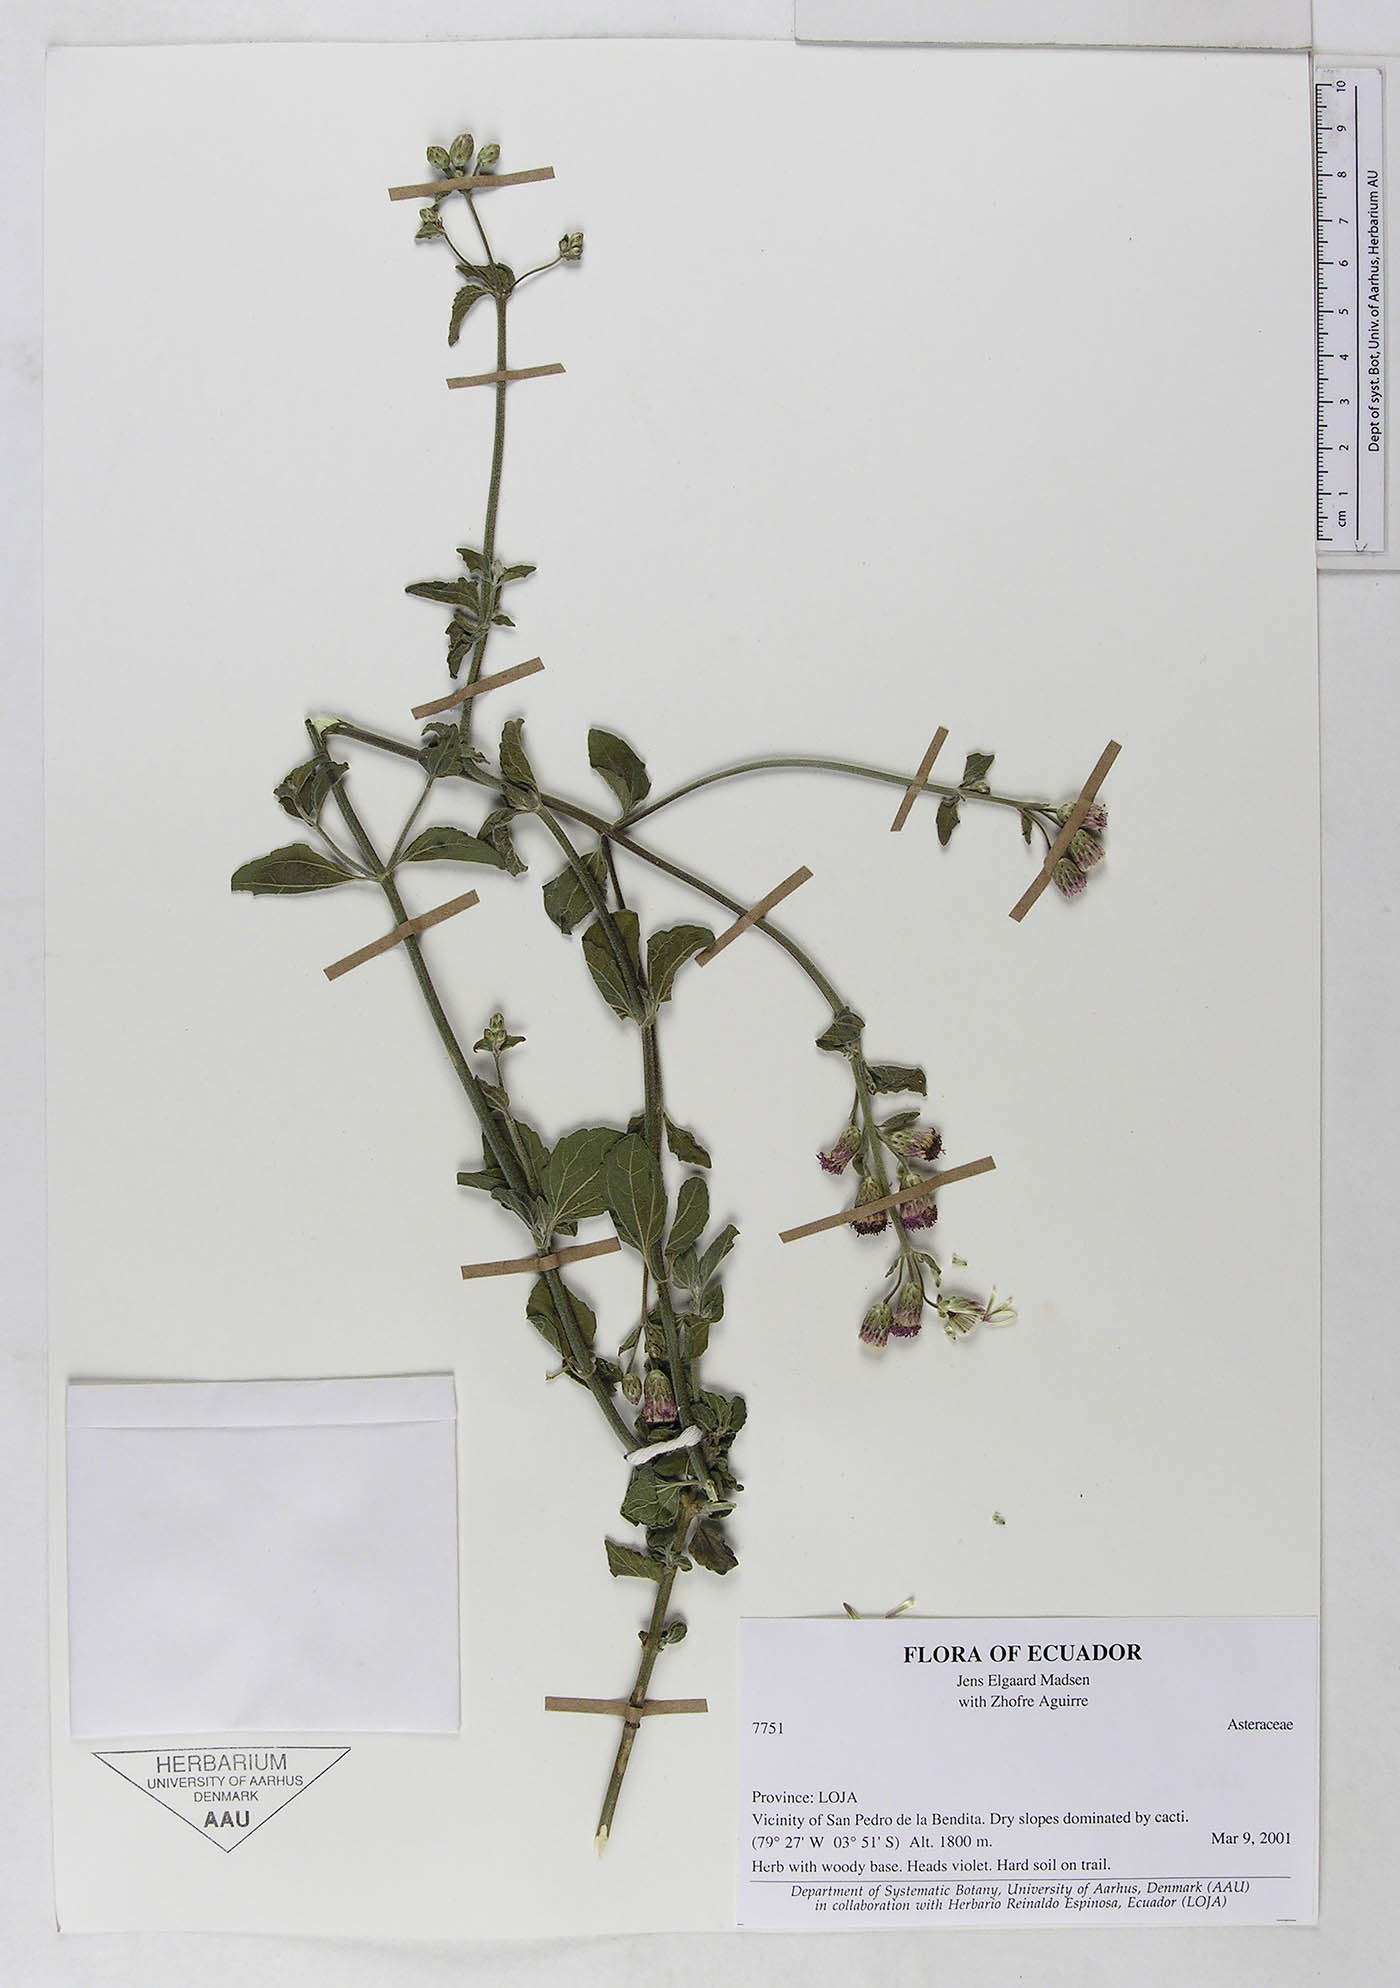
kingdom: Plantae
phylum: Tracheophyta
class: Magnoliopsida
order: Asterales
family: Asteraceae
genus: Chromolaena
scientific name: Chromolaena serratuloides
